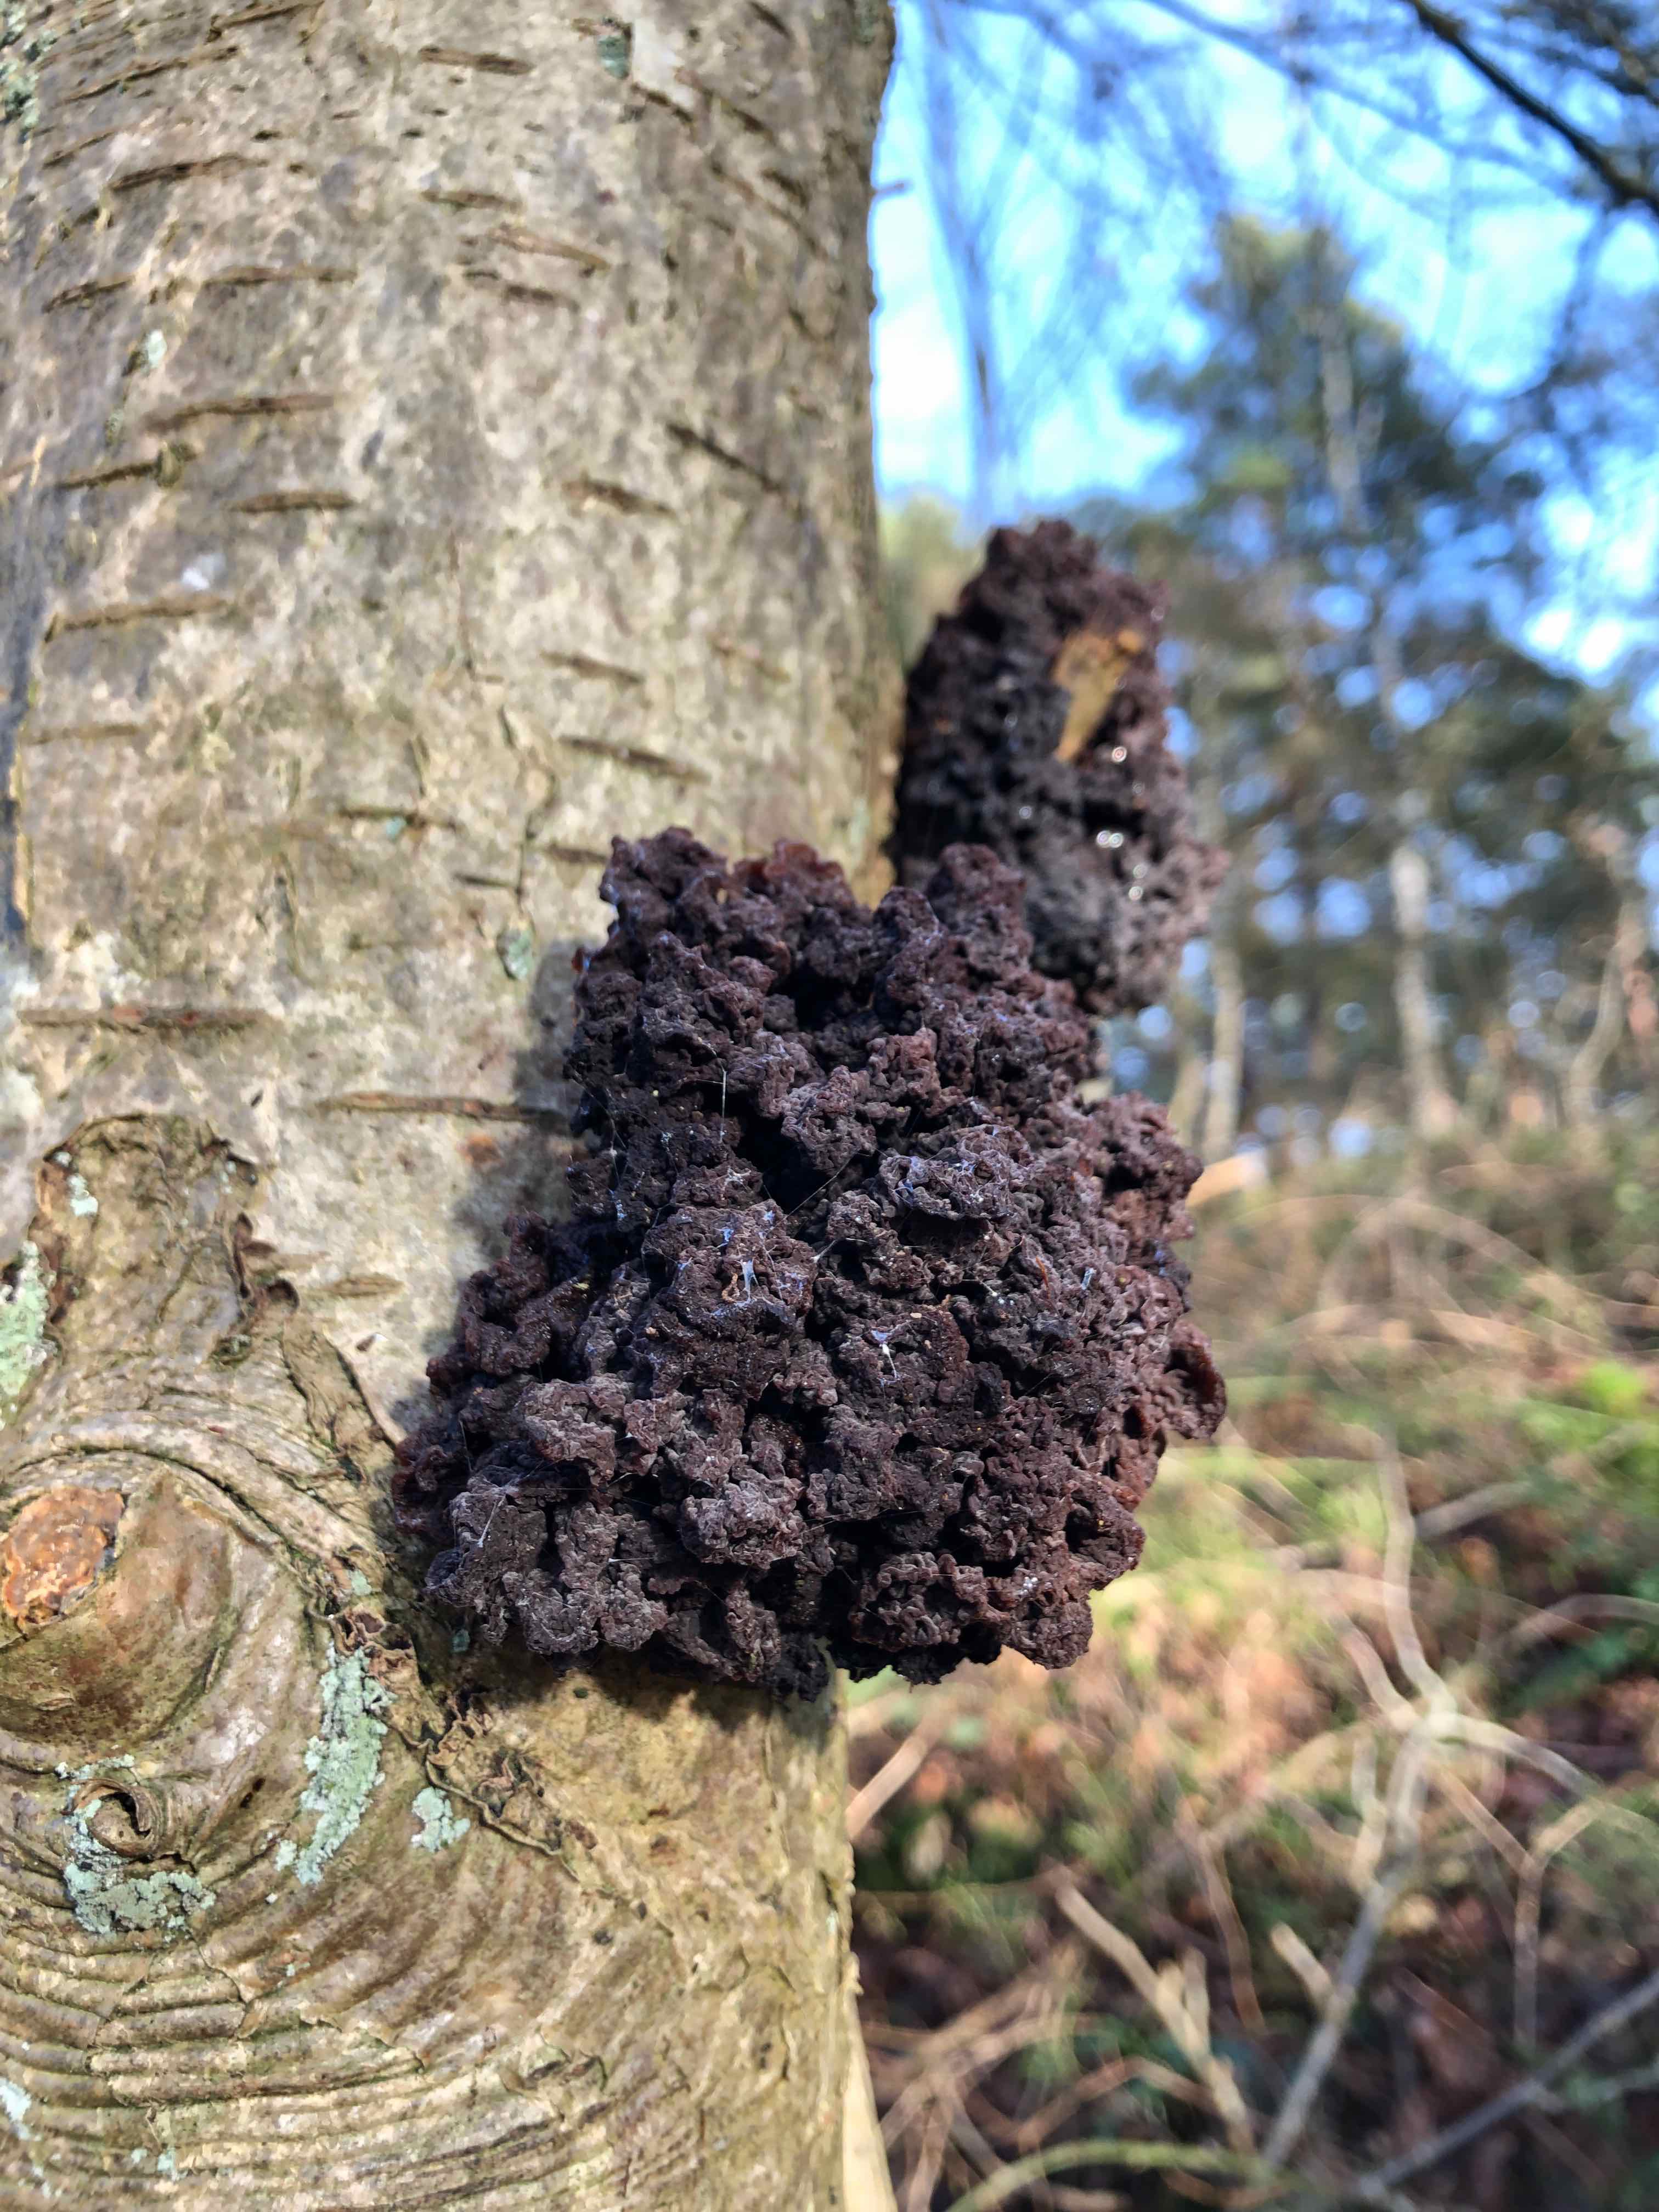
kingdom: Fungi
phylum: Basidiomycota
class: Tremellomycetes
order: Tremellales
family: Tremellaceae
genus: Phaeotremella
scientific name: Phaeotremella frondosa
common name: kæmpe-bævresvamp
